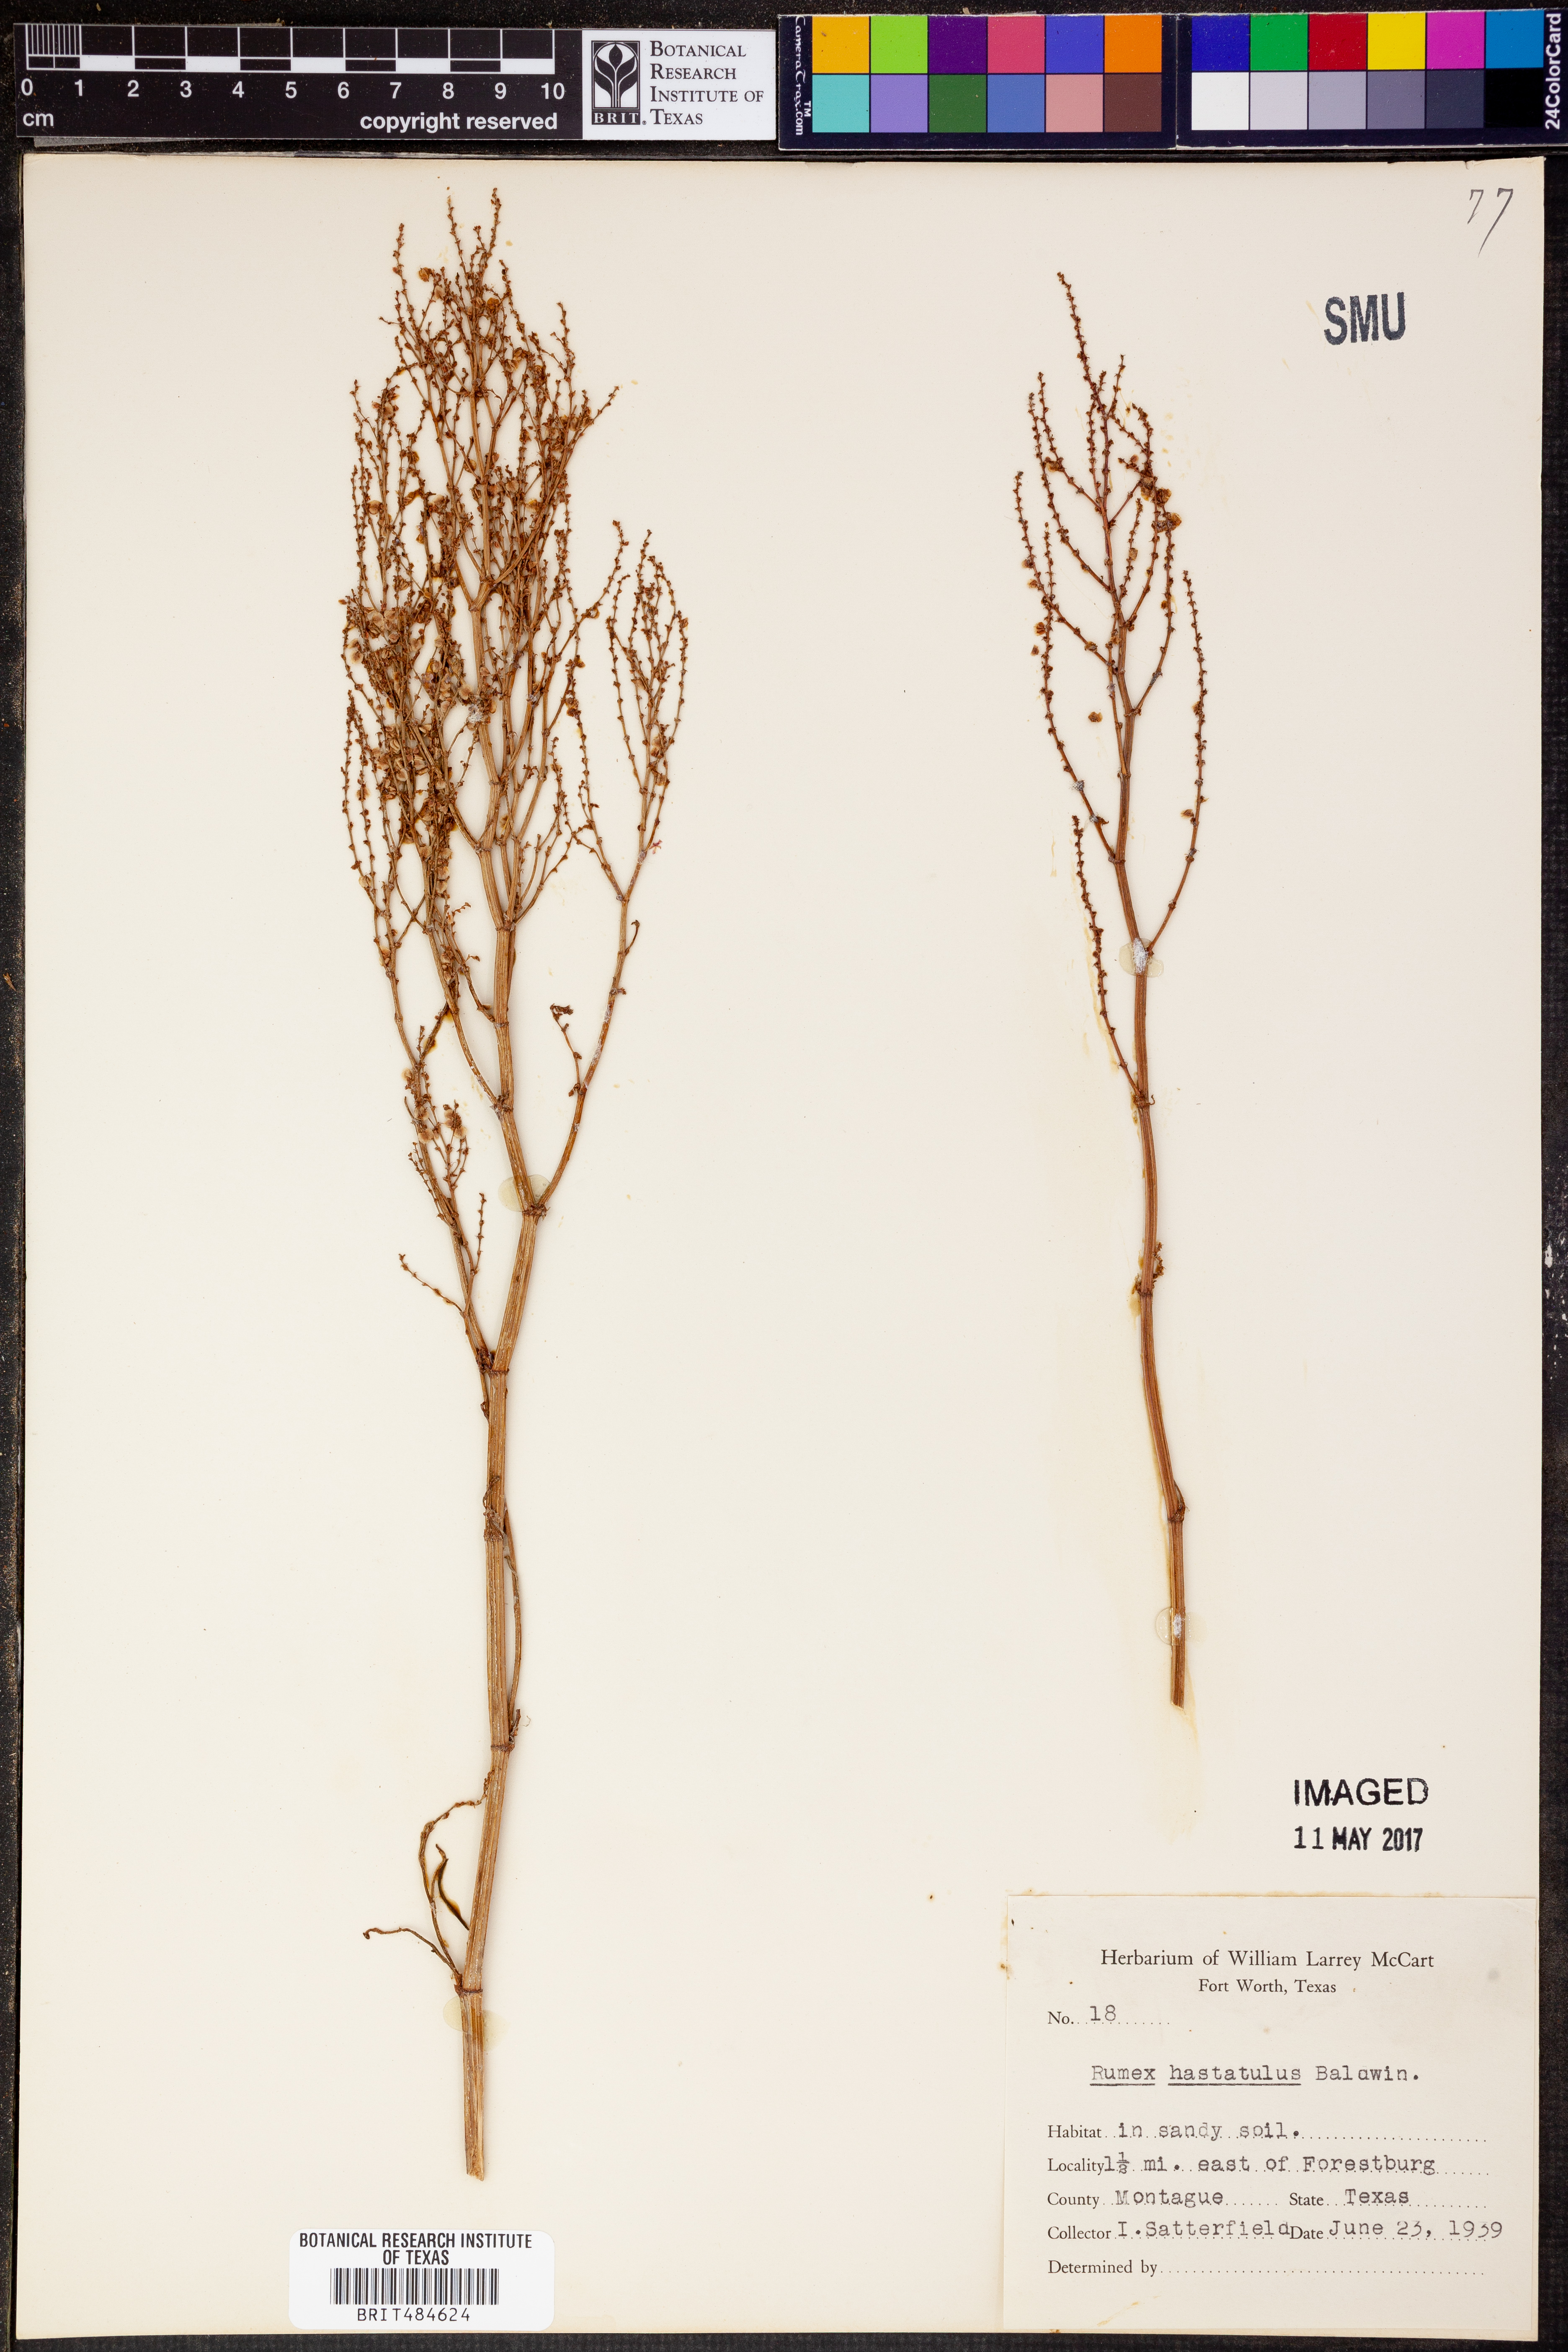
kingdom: Plantae
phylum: Tracheophyta
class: Magnoliopsida
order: Caryophyllales
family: Polygonaceae
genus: Rumex
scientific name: Rumex hastatulus
